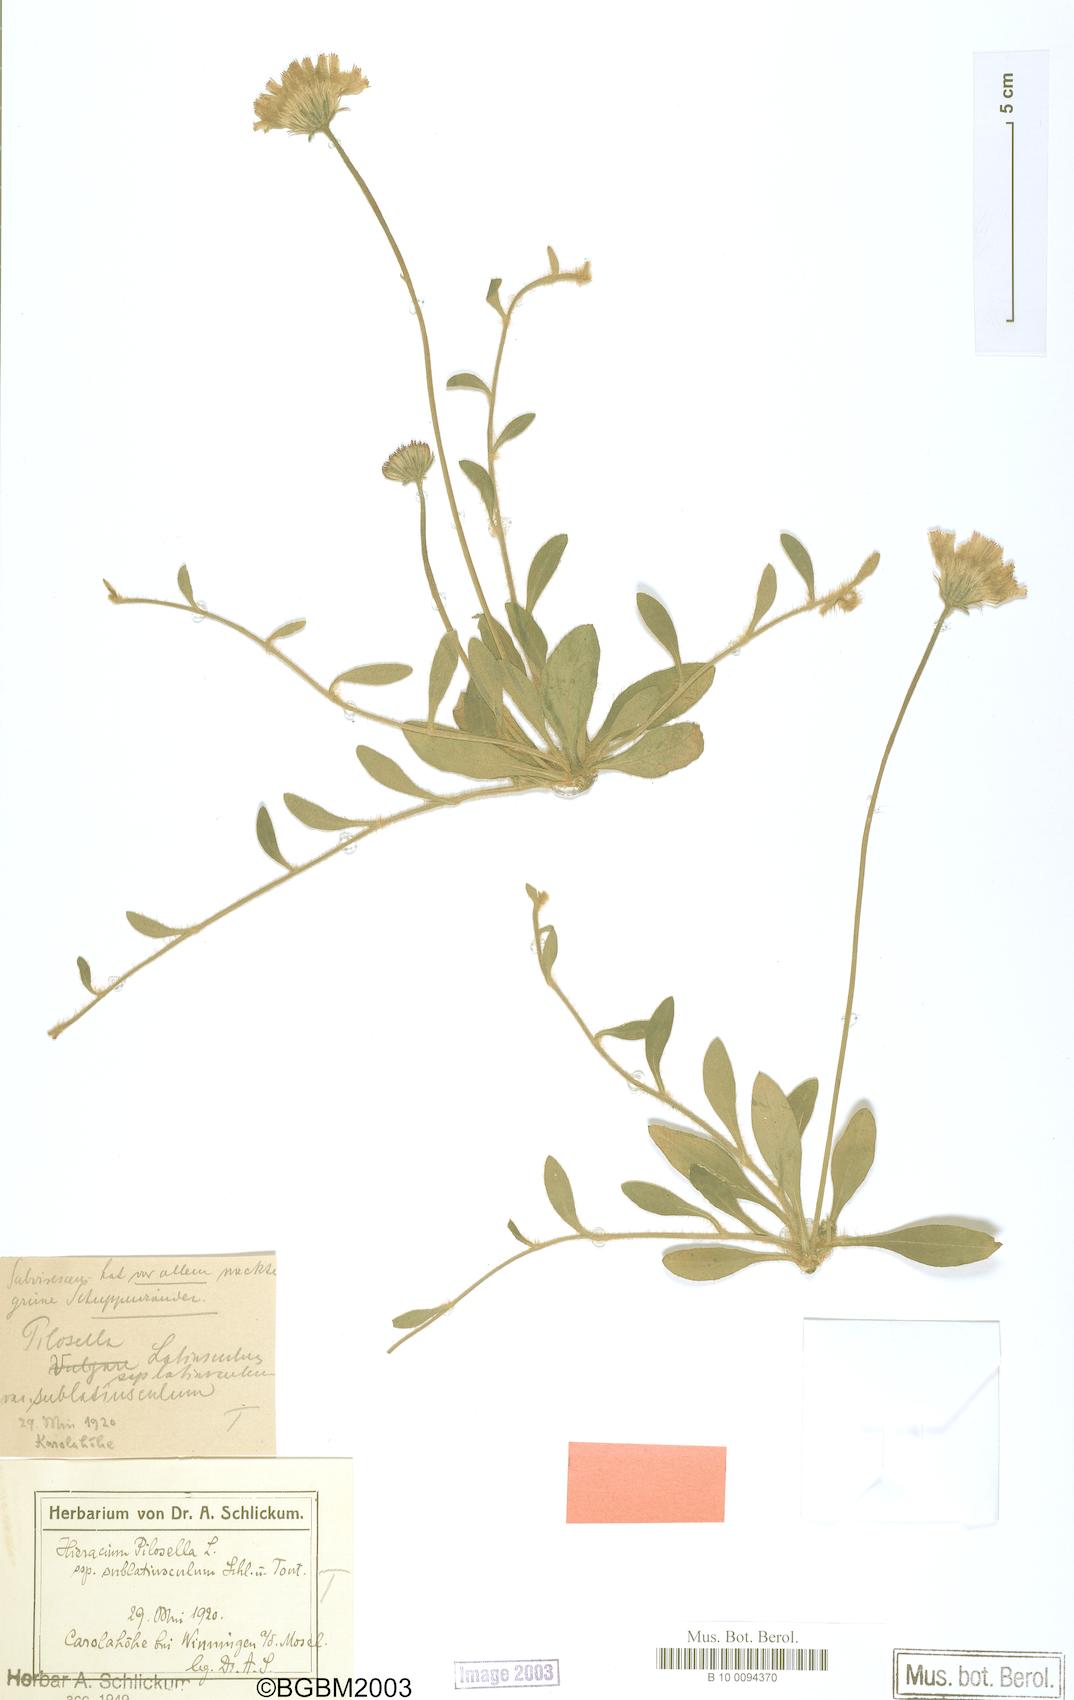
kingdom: Plantae
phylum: Tracheophyta
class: Magnoliopsida
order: Asterales
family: Asteraceae
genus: Pilosella
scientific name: Pilosella officinarum
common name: Mouse-ear hawkweed
